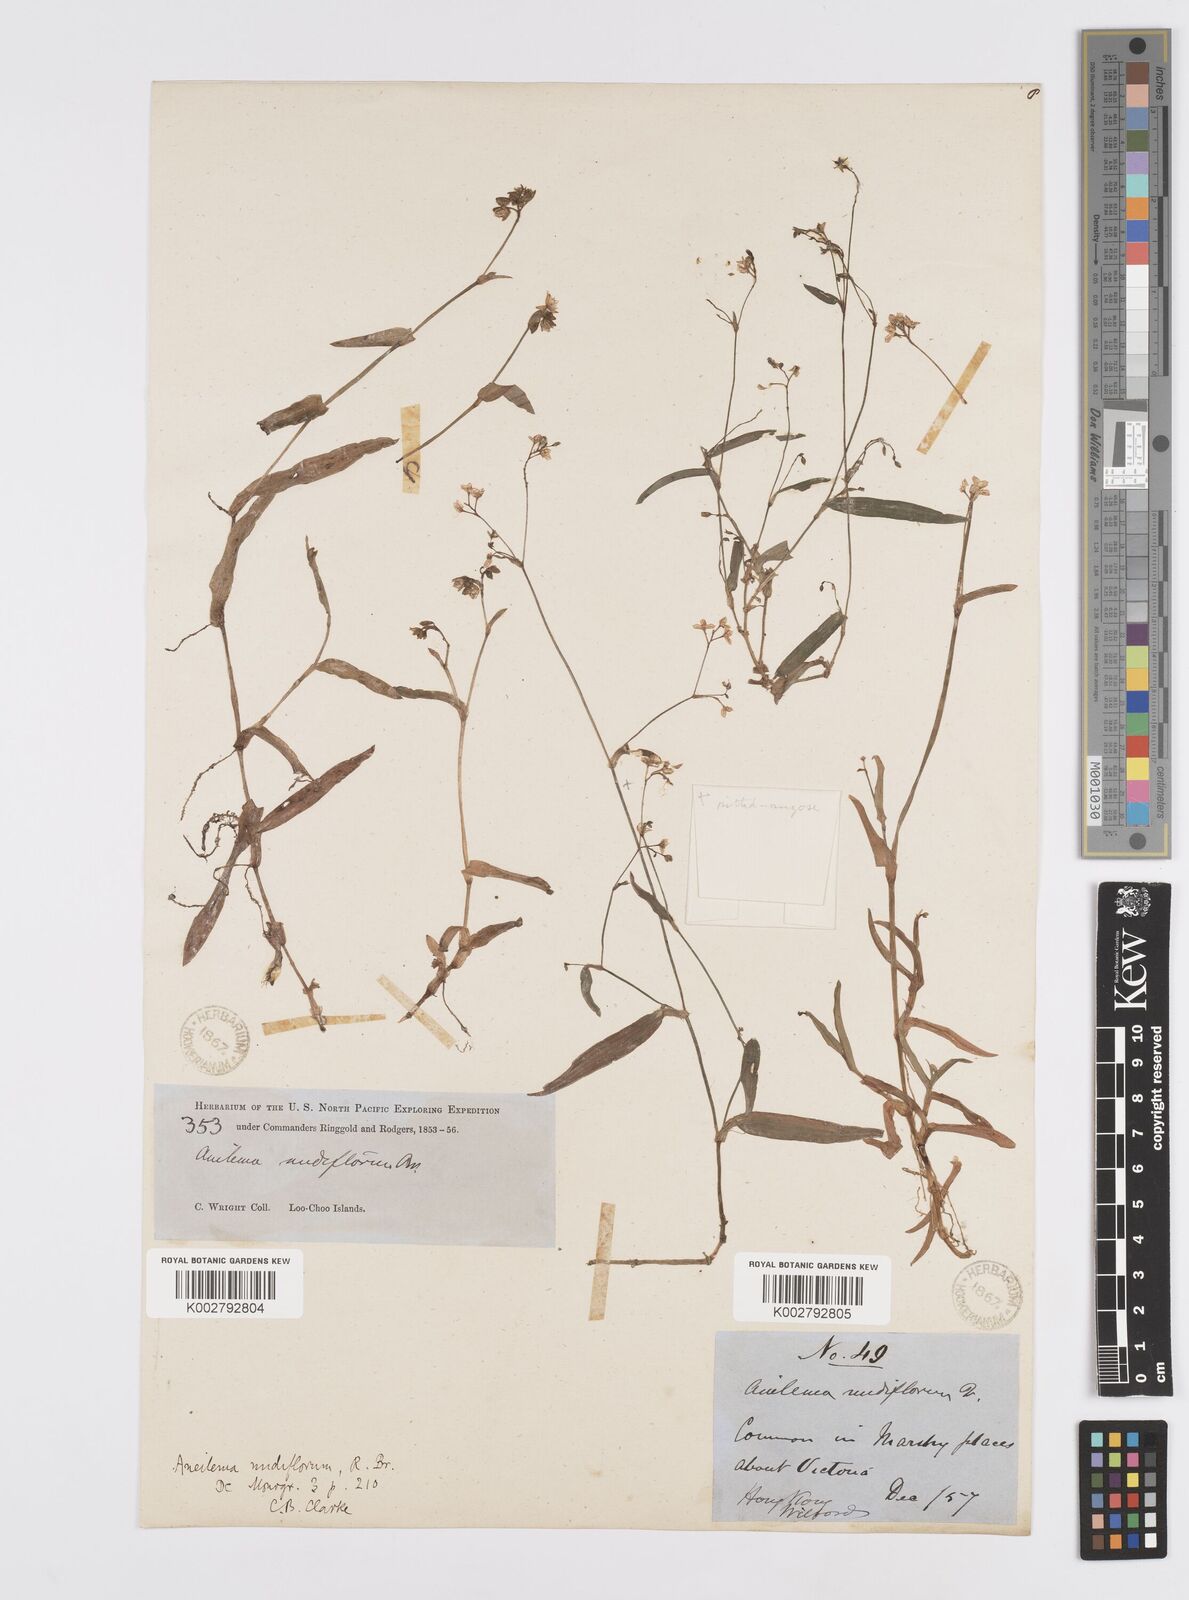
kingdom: Plantae
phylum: Tracheophyta
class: Liliopsida
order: Commelinales
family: Commelinaceae
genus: Murdannia
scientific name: Murdannia
